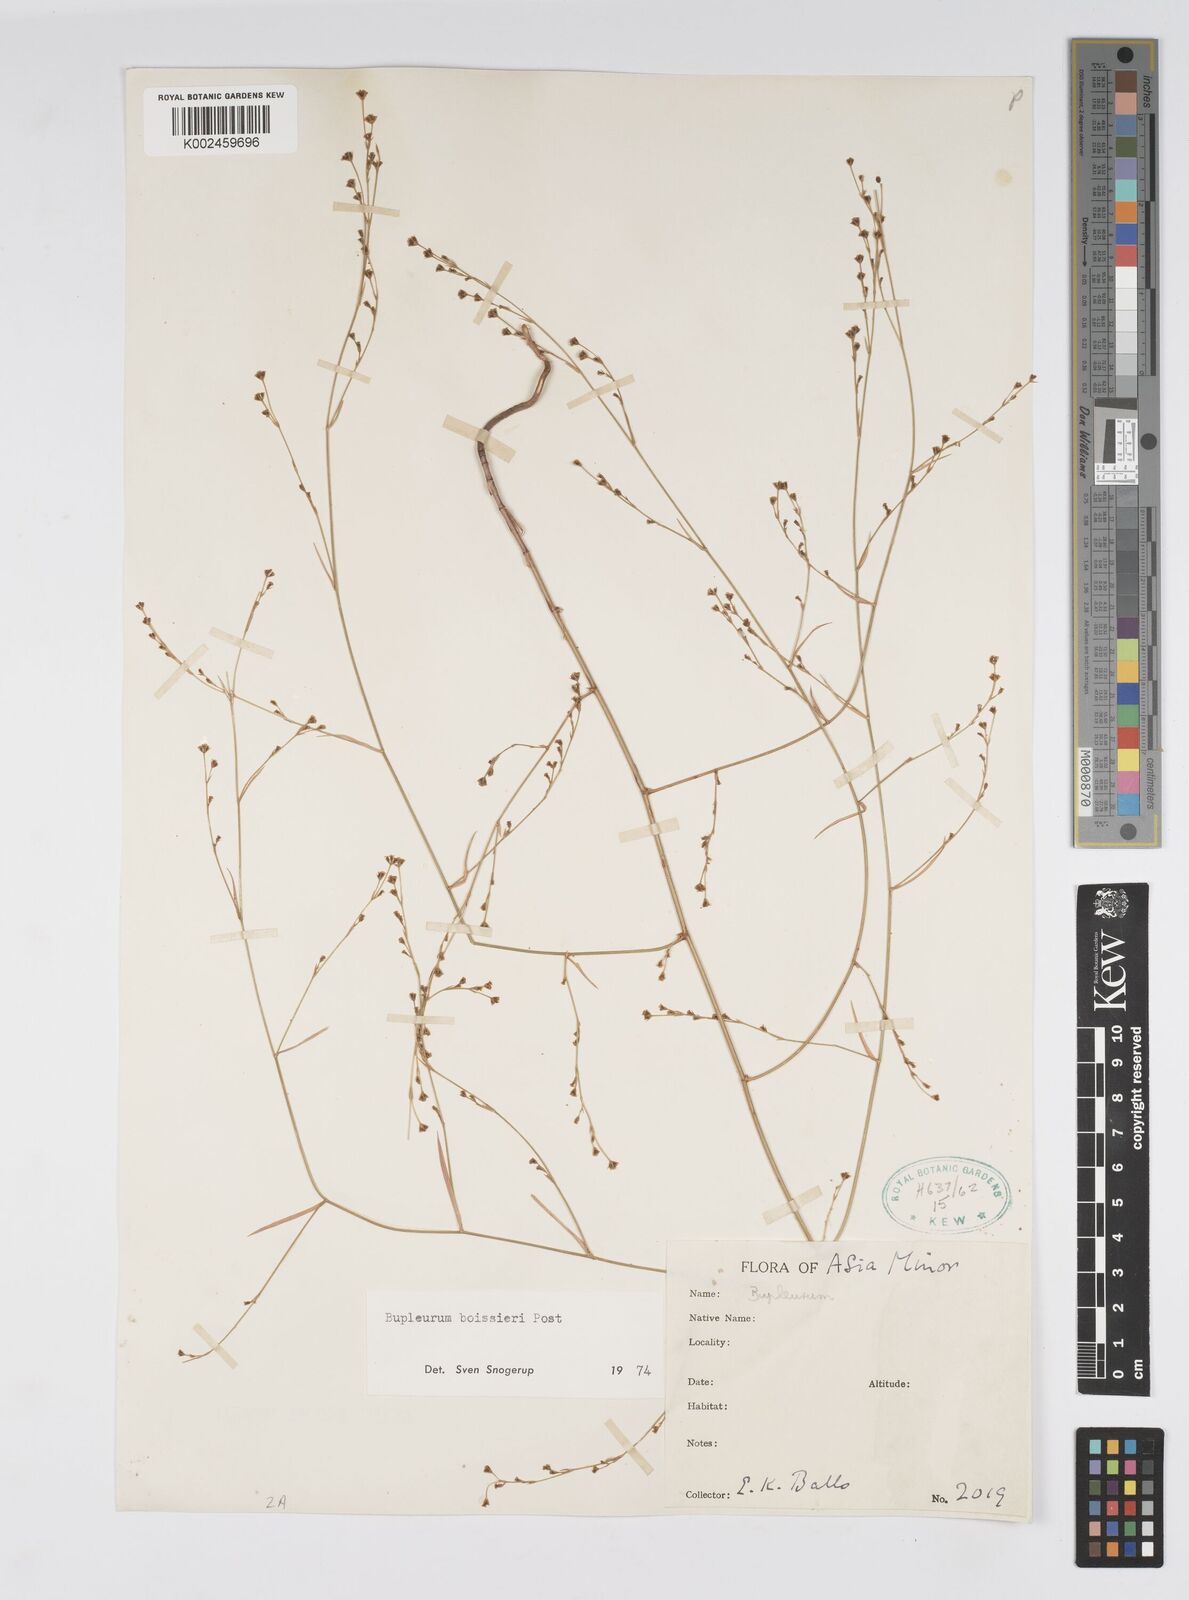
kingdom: Plantae
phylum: Tracheophyta
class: Magnoliopsida
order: Apiales
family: Apiaceae
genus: Bupleurum
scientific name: Bupleurum boissieri
